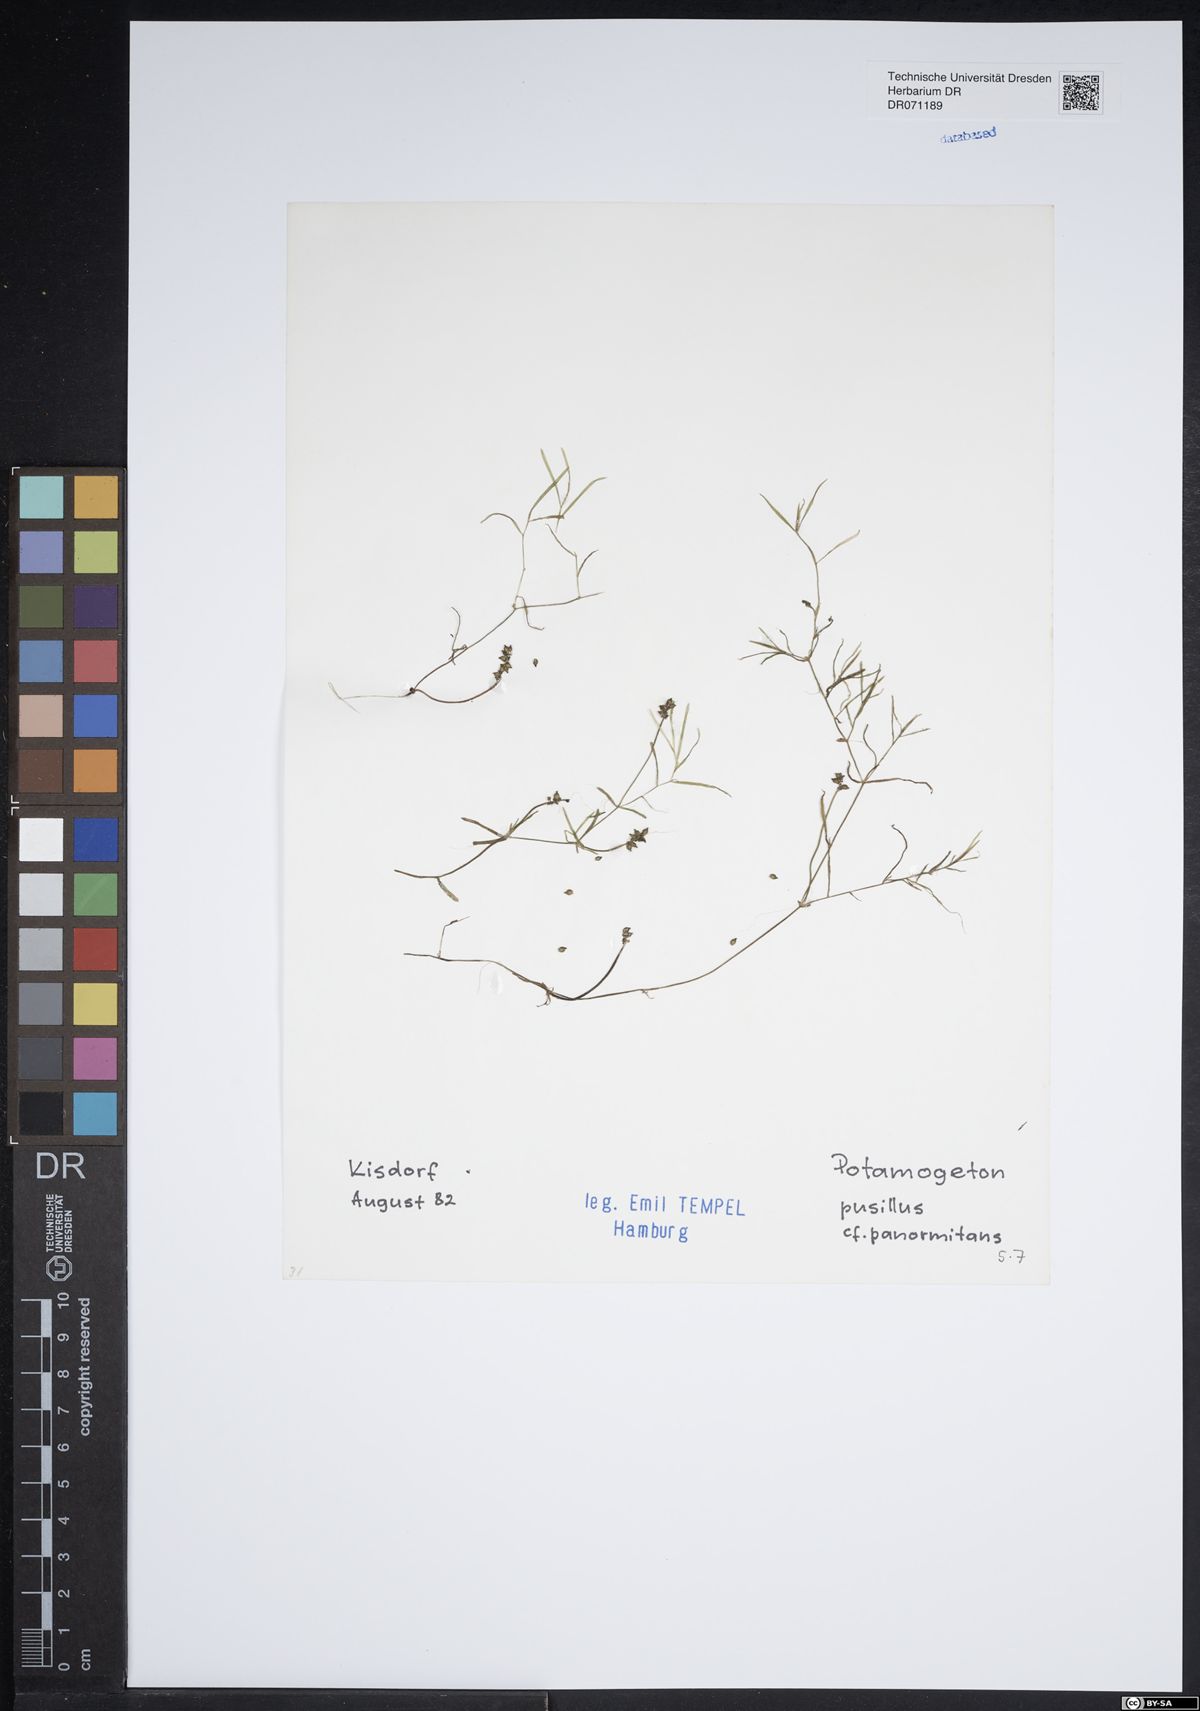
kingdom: Plantae
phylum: Tracheophyta
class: Liliopsida
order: Alismatales
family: Potamogetonaceae
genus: Potamogeton
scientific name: Potamogeton pusillus
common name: Lesser pondweed
